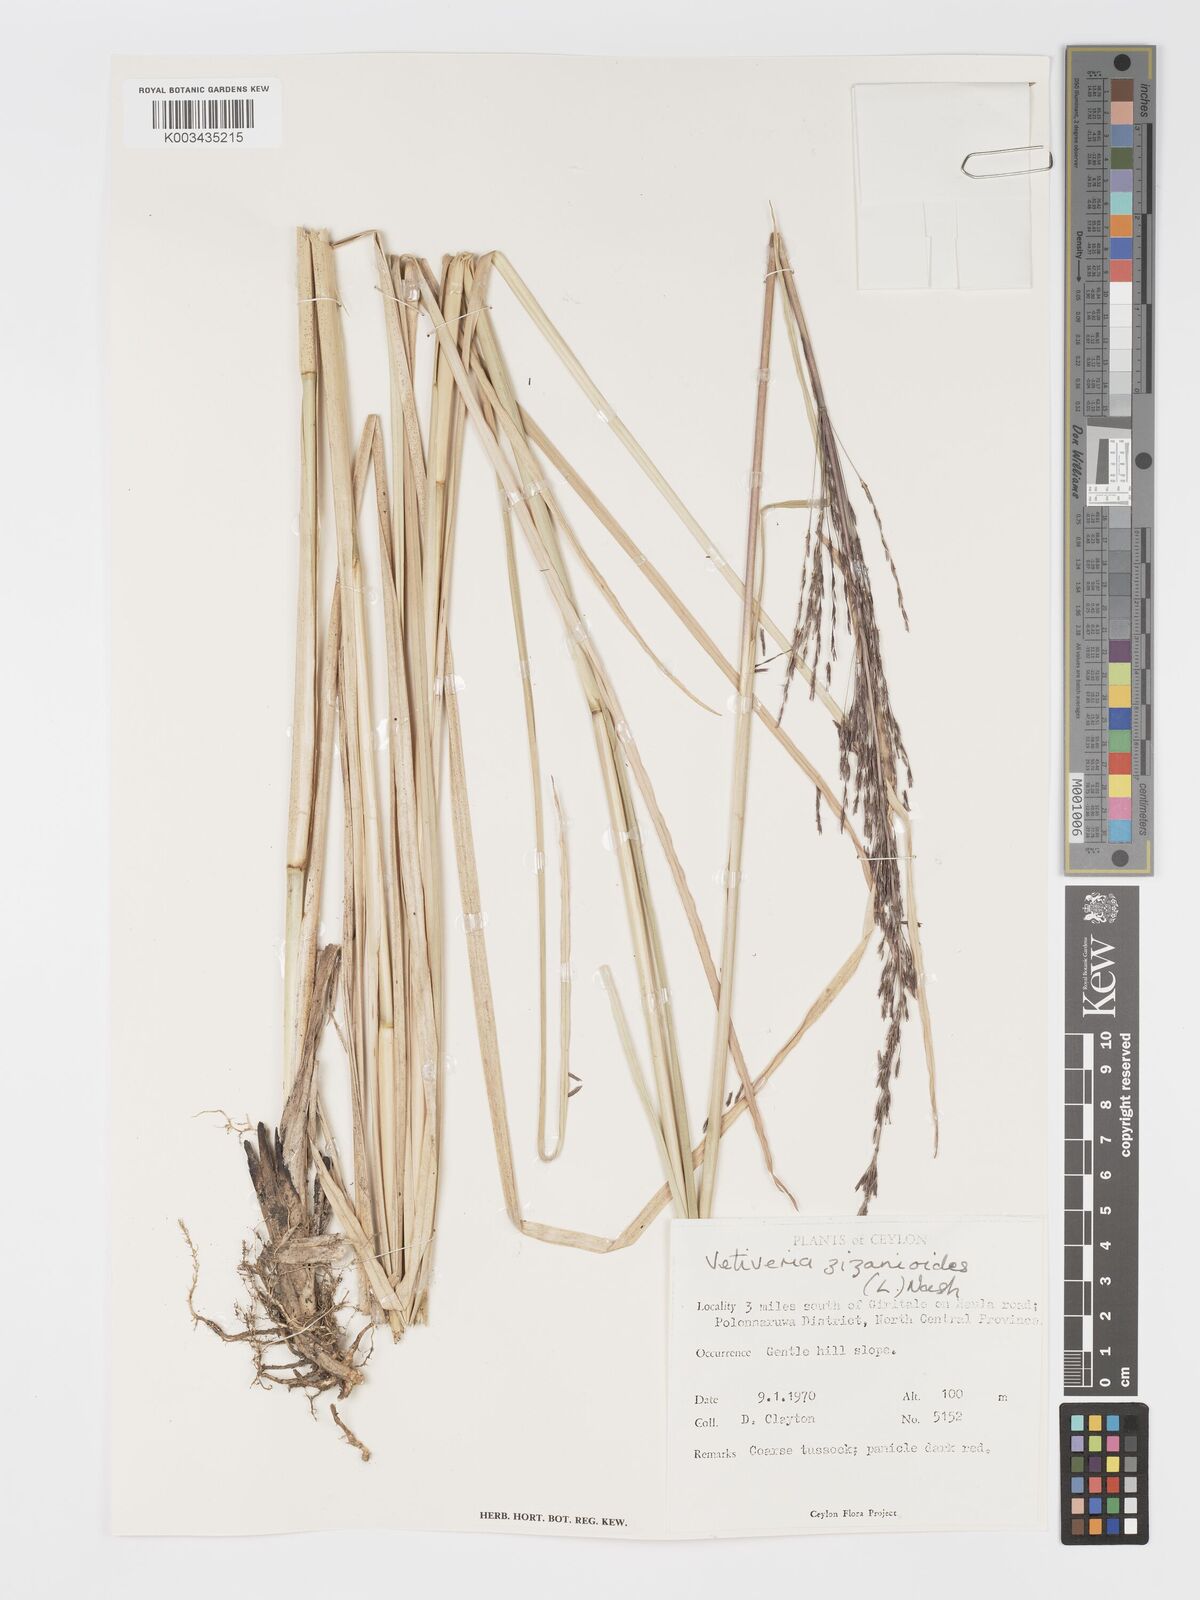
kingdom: Plantae
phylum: Tracheophyta
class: Liliopsida
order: Poales
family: Poaceae
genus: Chrysopogon
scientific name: Chrysopogon zizanioides
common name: False beardgrass
